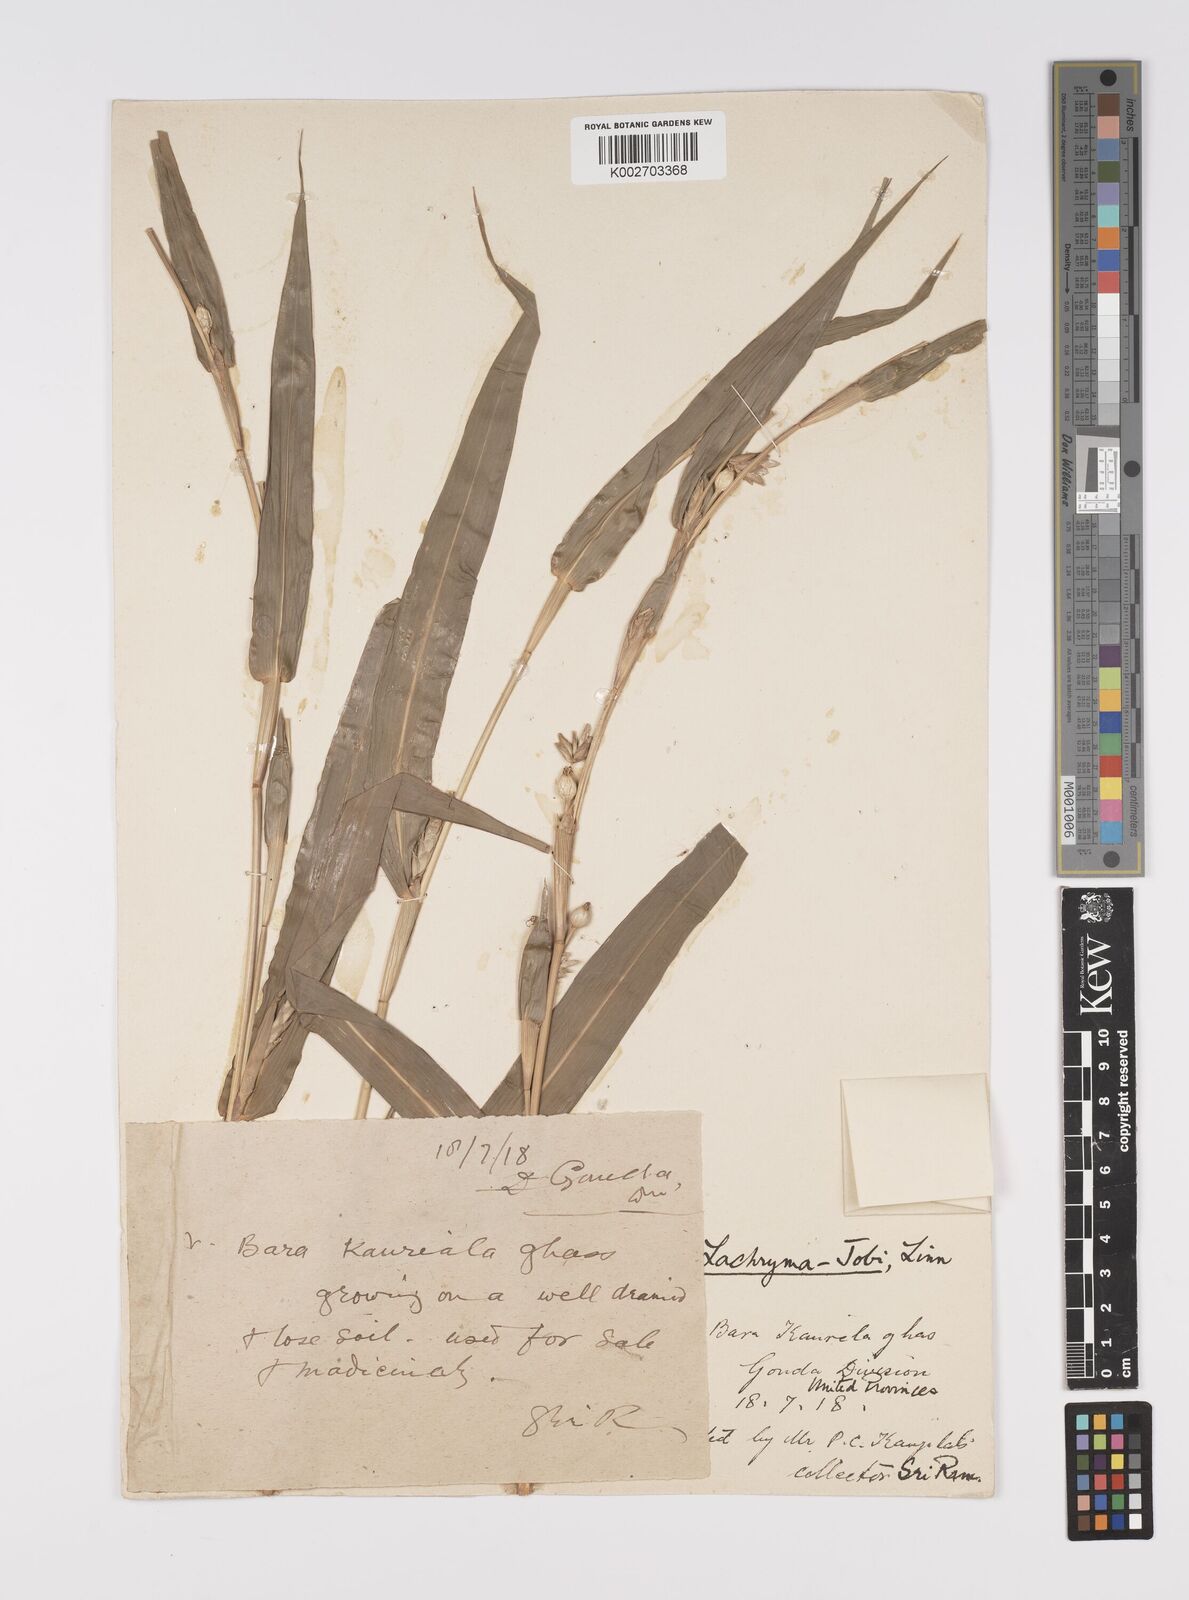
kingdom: Plantae
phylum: Tracheophyta
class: Liliopsida
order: Poales
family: Poaceae
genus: Coix
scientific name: Coix lacryma-jobi
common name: Job's tears
